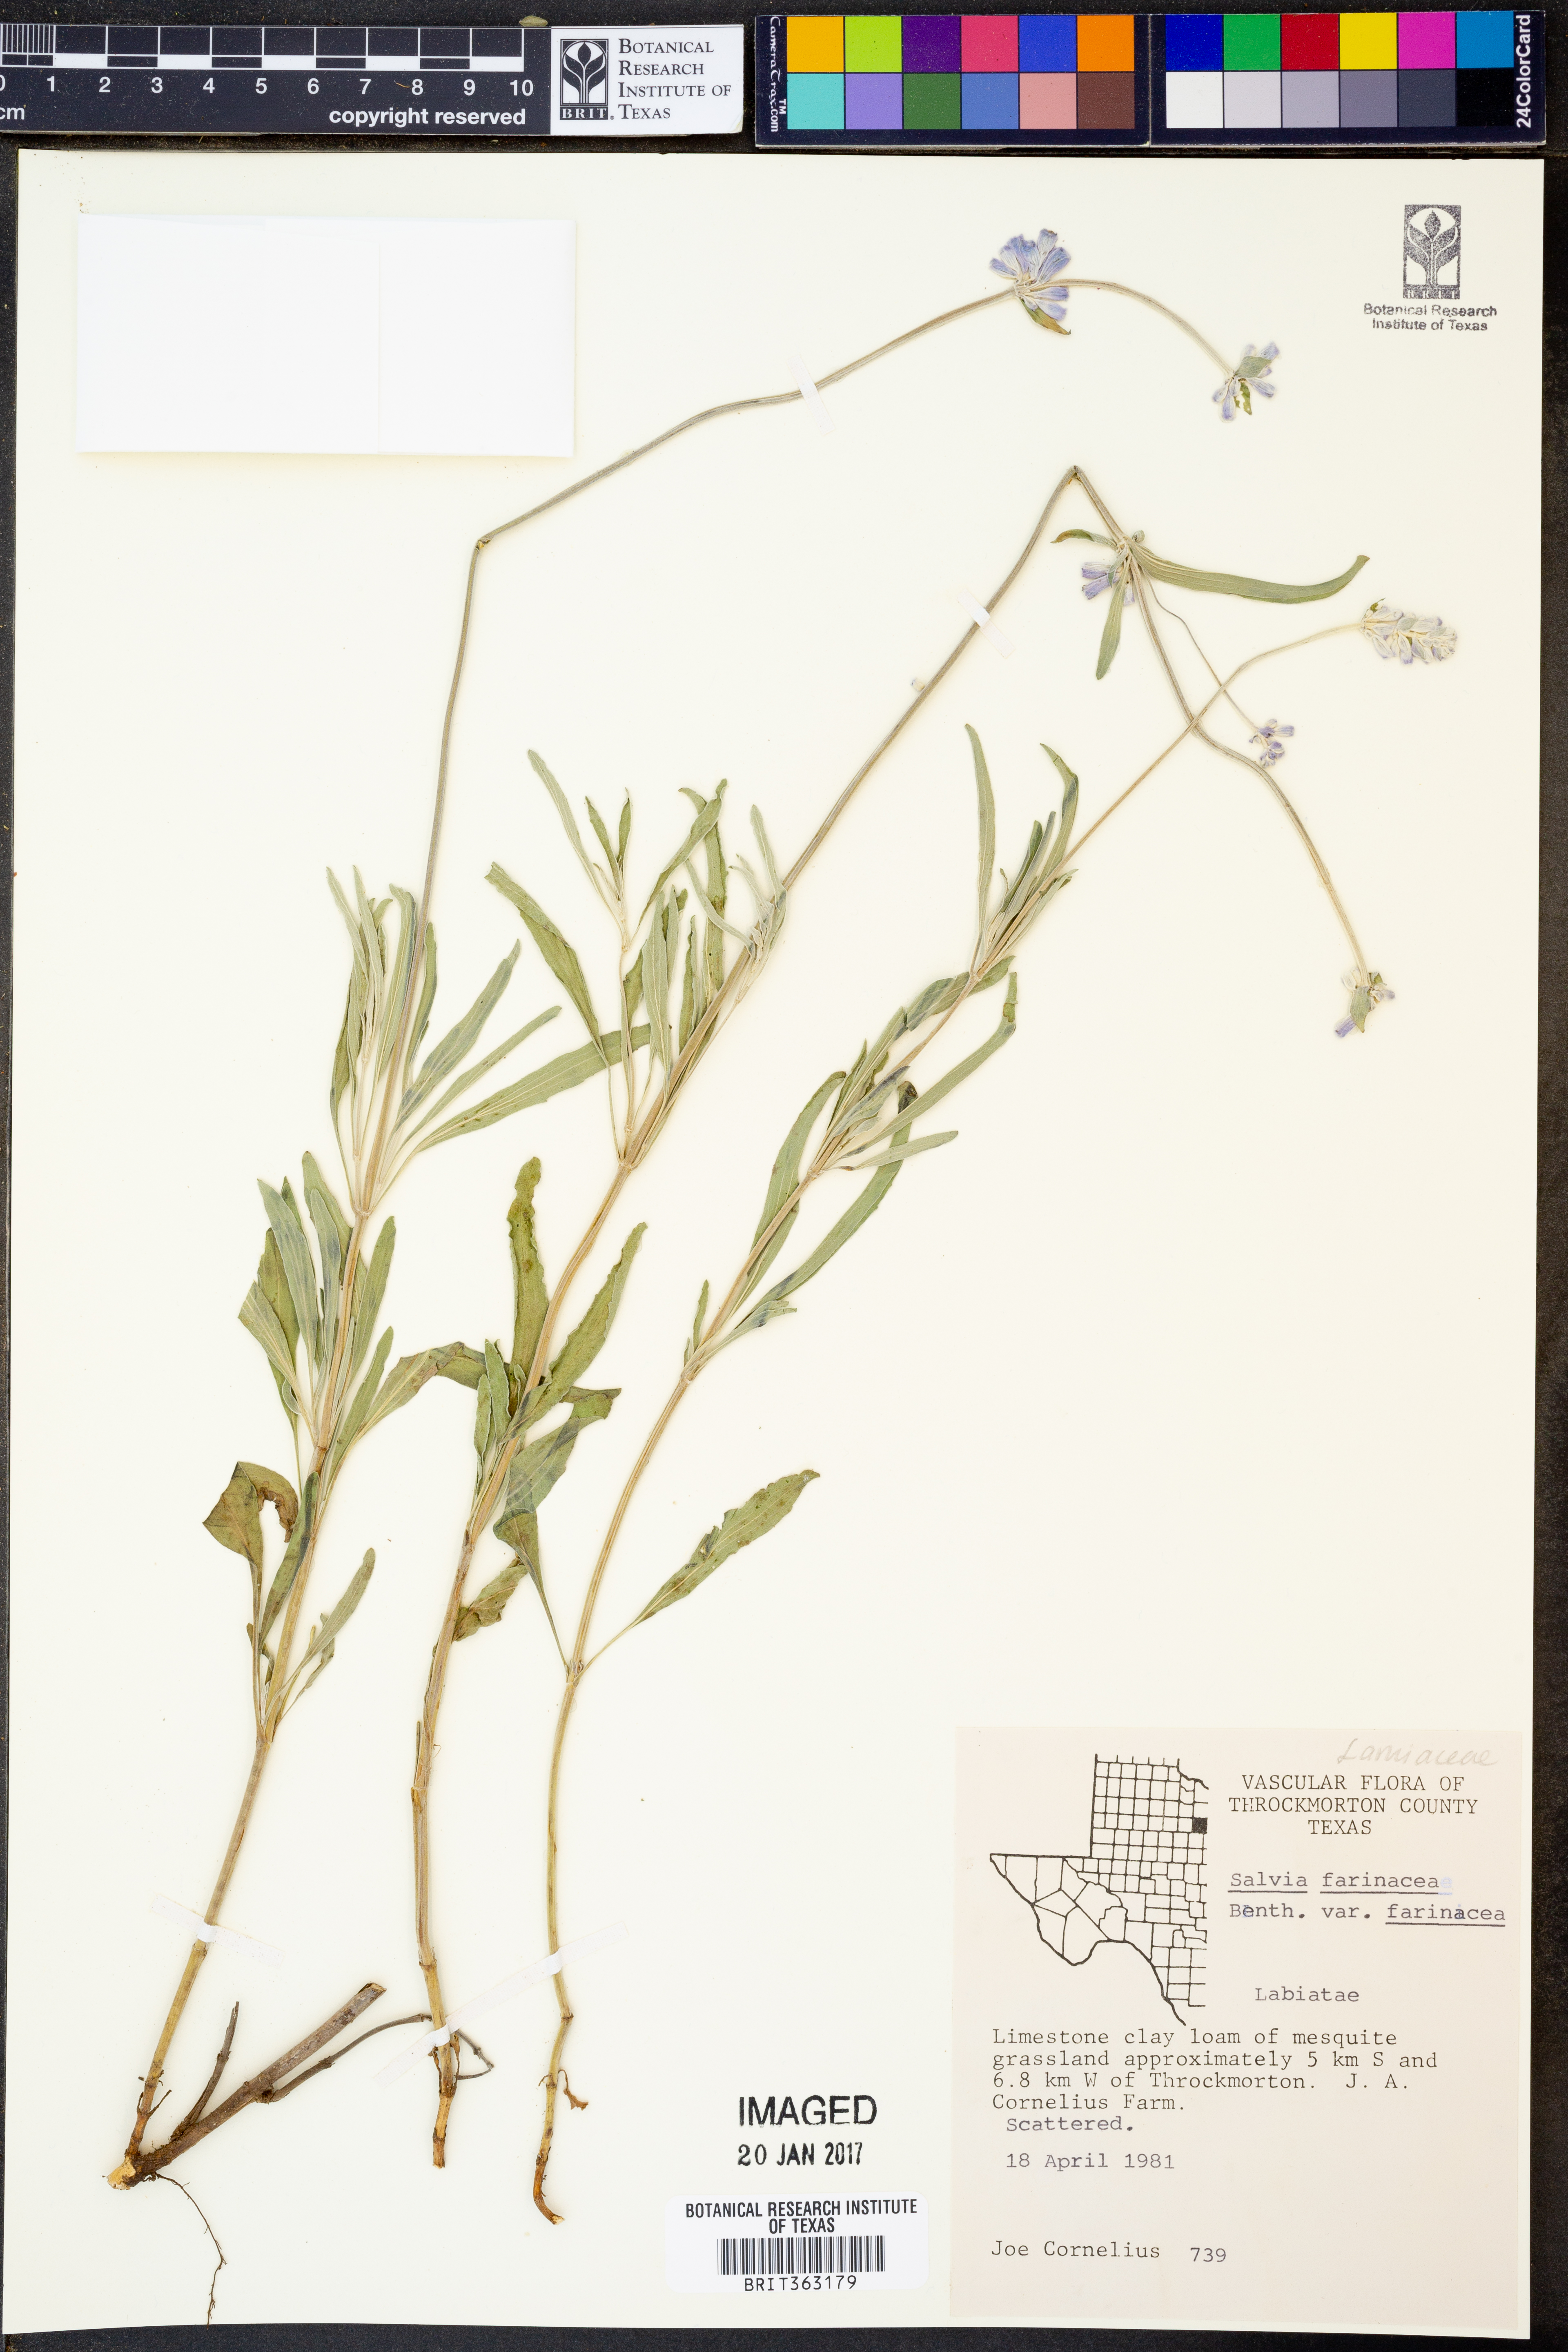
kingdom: Plantae
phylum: Tracheophyta
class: Magnoliopsida
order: Lamiales
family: Lamiaceae
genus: Salvia
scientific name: Salvia farinacea
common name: Mealy sage
